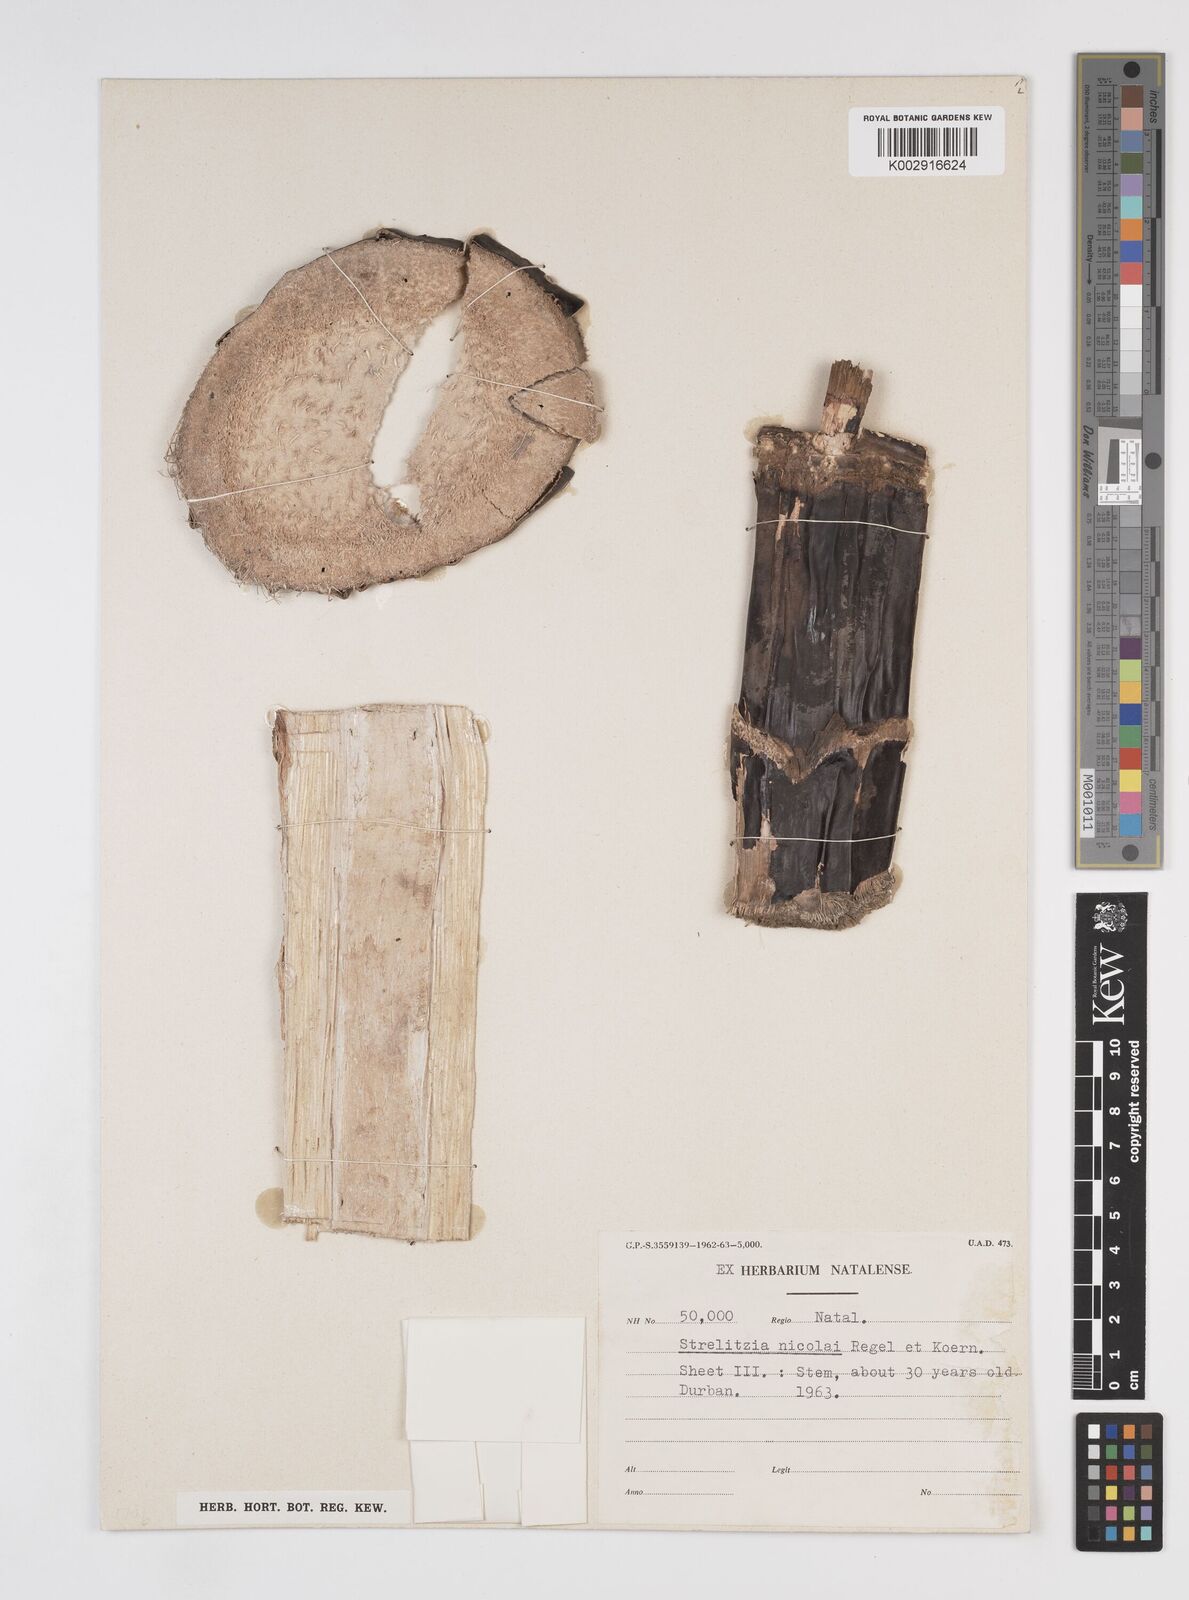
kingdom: Plantae
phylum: Tracheophyta
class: Liliopsida
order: Zingiberales
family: Strelitziaceae
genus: Strelitzia
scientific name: Strelitzia nicolai
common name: Bird-of-paradise tree
